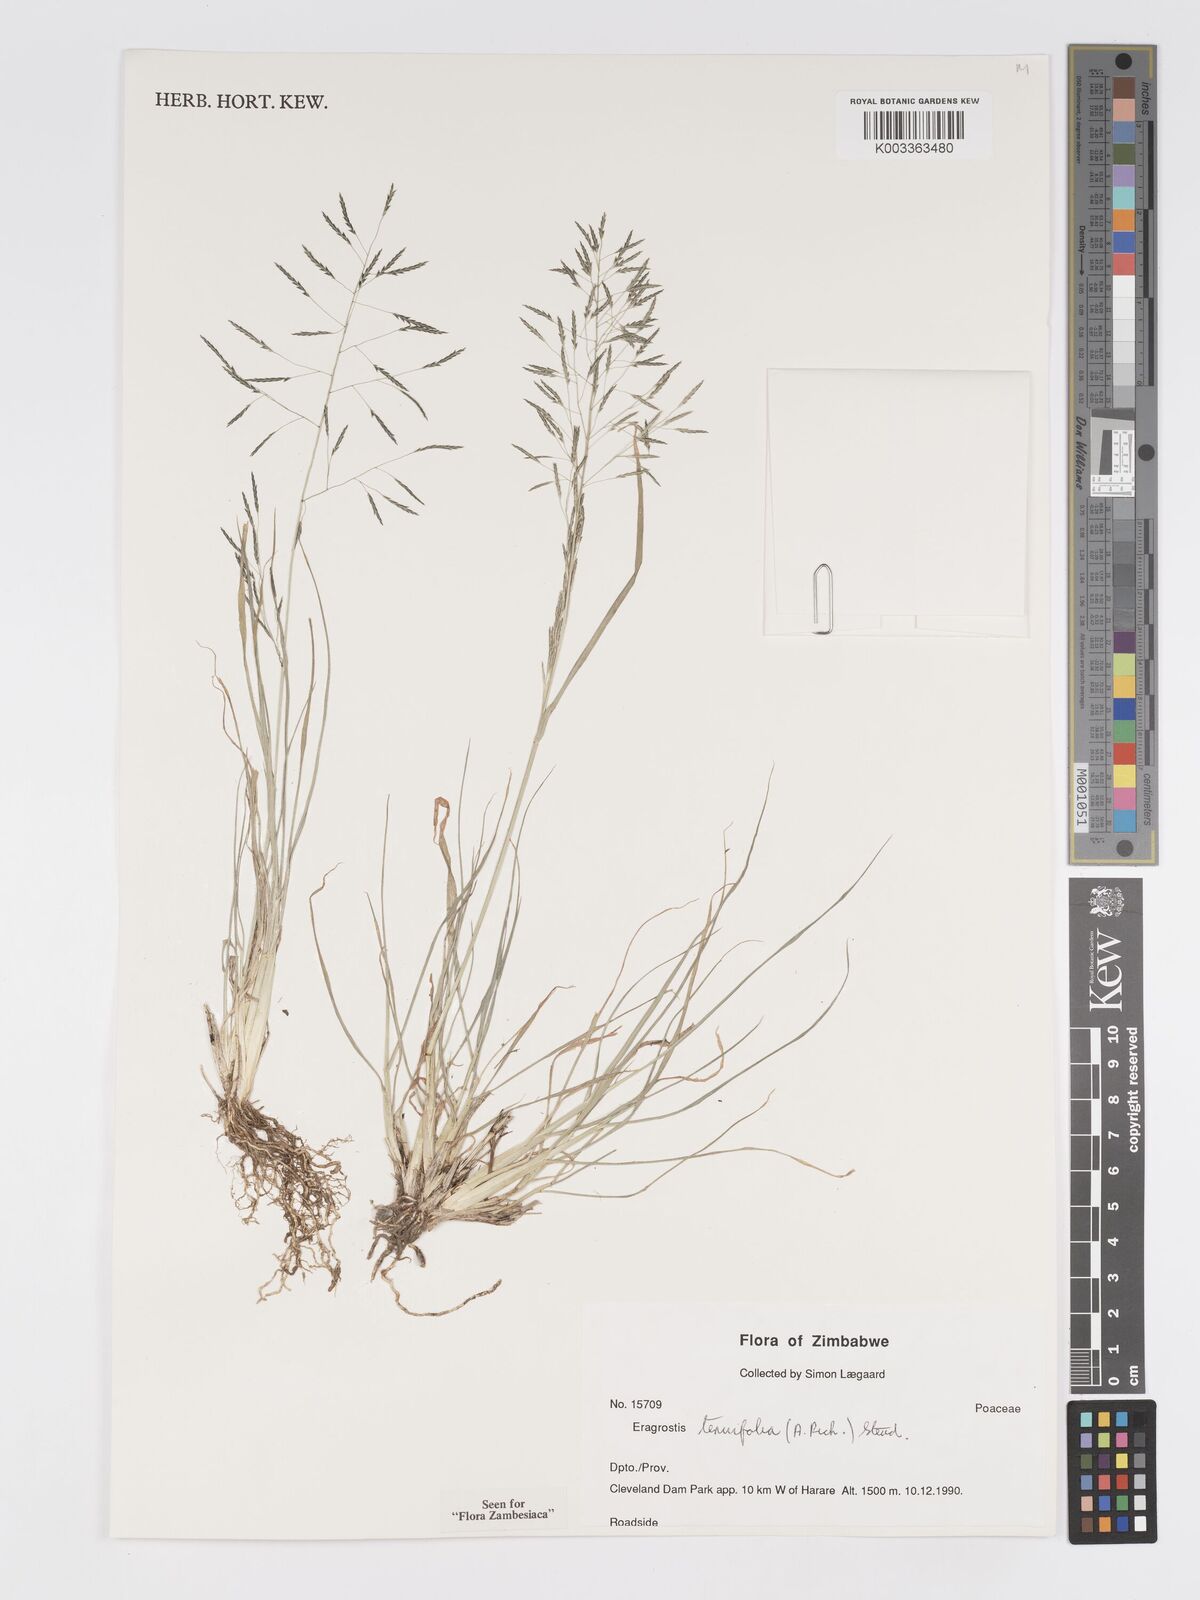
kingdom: Plantae
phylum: Tracheophyta
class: Liliopsida
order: Poales
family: Poaceae
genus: Eragrostis
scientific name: Eragrostis tenuifolia
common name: Elastic grass
